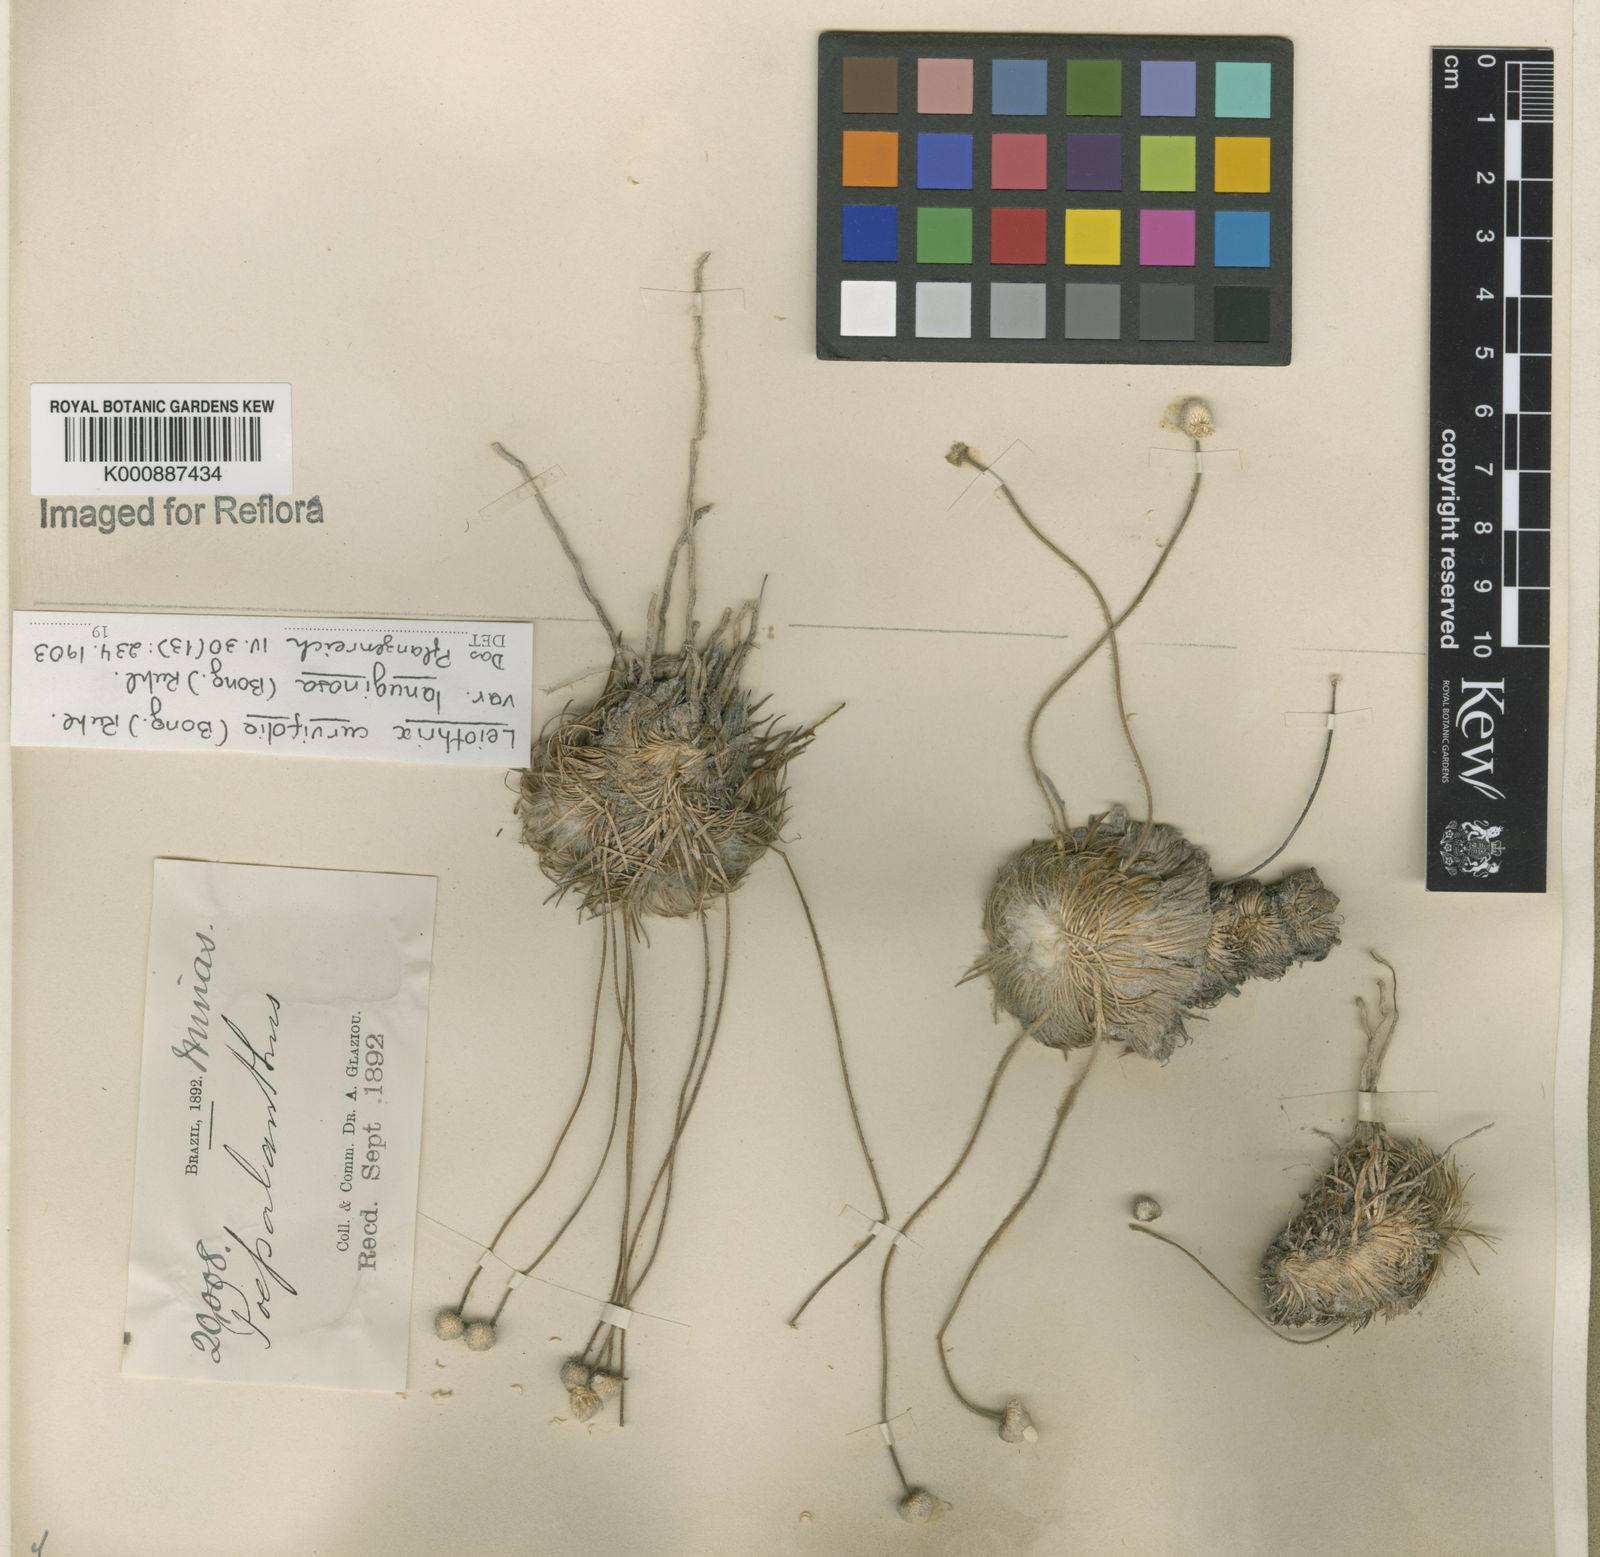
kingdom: Plantae
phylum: Tracheophyta
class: Liliopsida
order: Poales
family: Eriocaulaceae
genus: Leiothrix
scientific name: Leiothrix curvifolia
